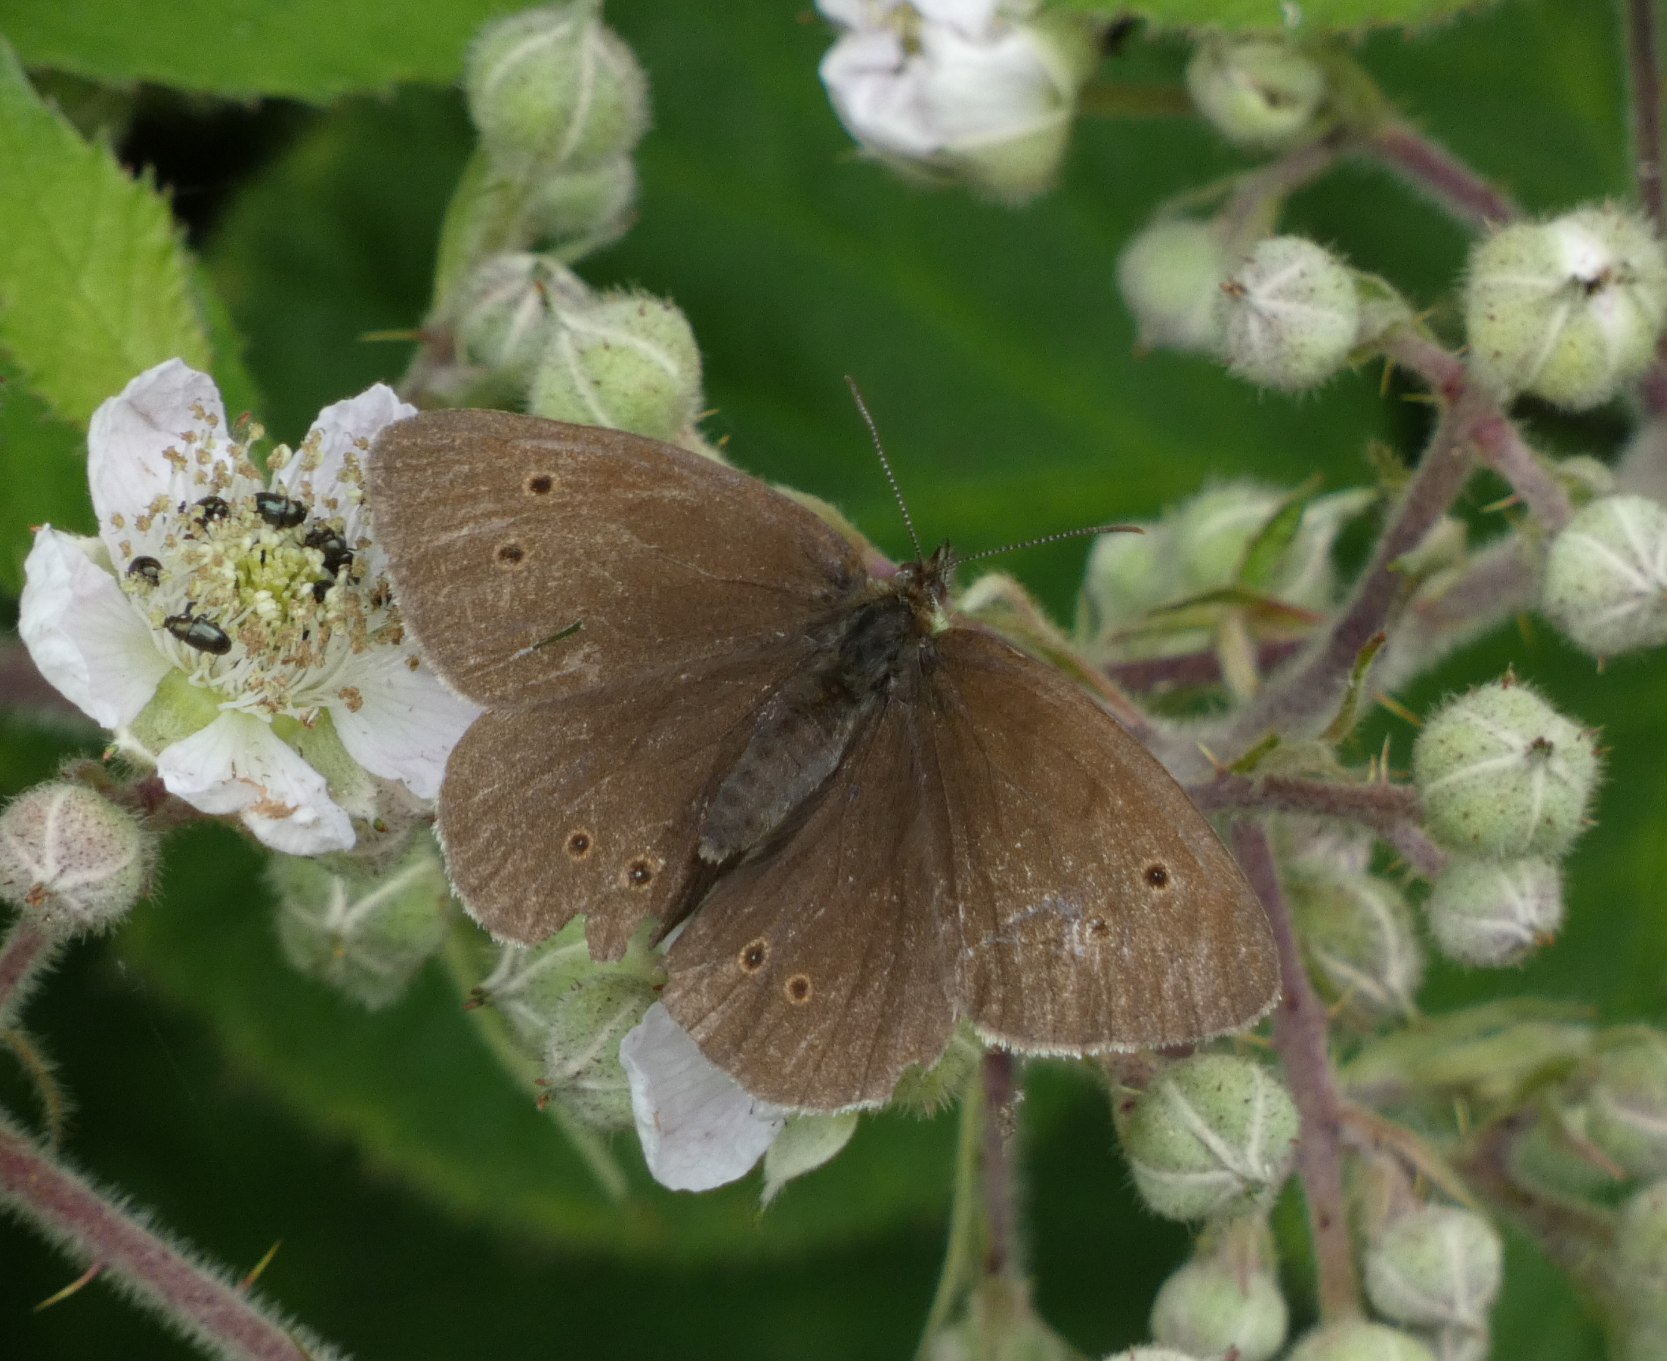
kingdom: Animalia
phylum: Arthropoda
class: Insecta
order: Lepidoptera
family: Nymphalidae
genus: Aphantopus
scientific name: Aphantopus hyperantus
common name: Engrandøje
